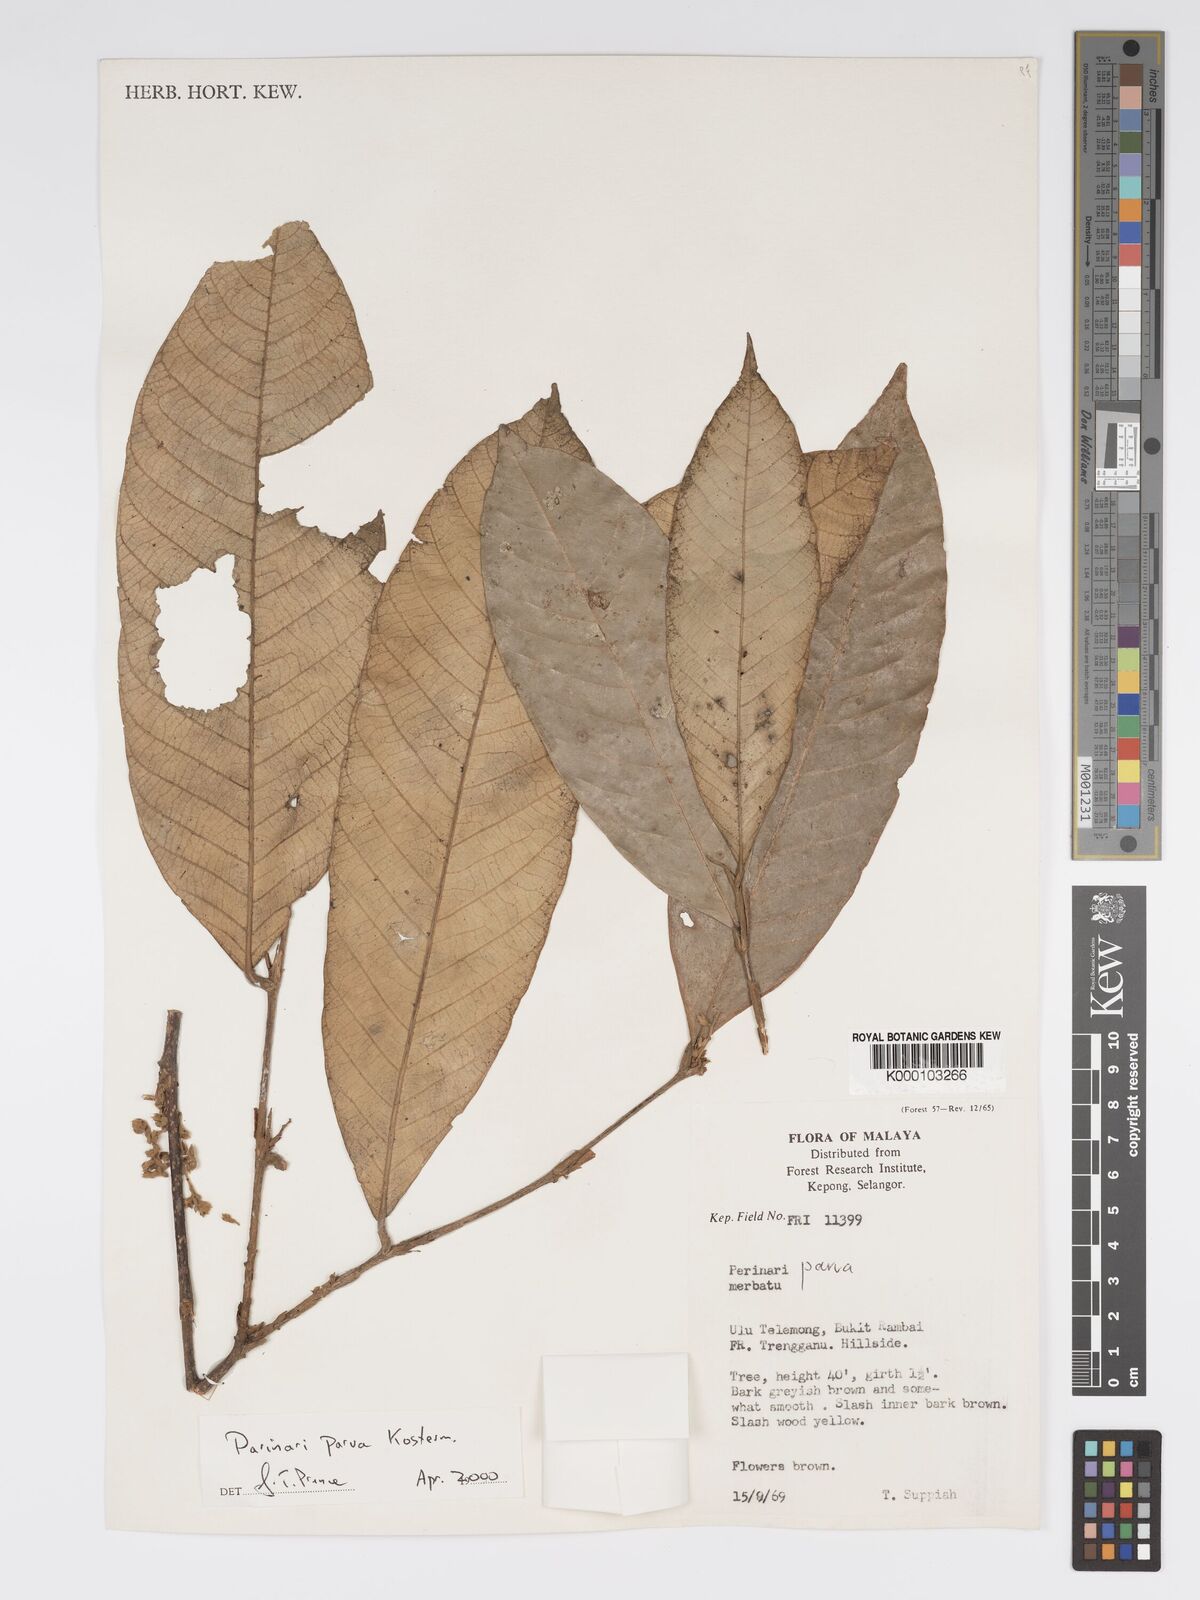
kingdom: Plantae
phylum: Tracheophyta
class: Magnoliopsida
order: Malpighiales
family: Chrysobalanaceae
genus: Parinari
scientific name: Parinari parva
